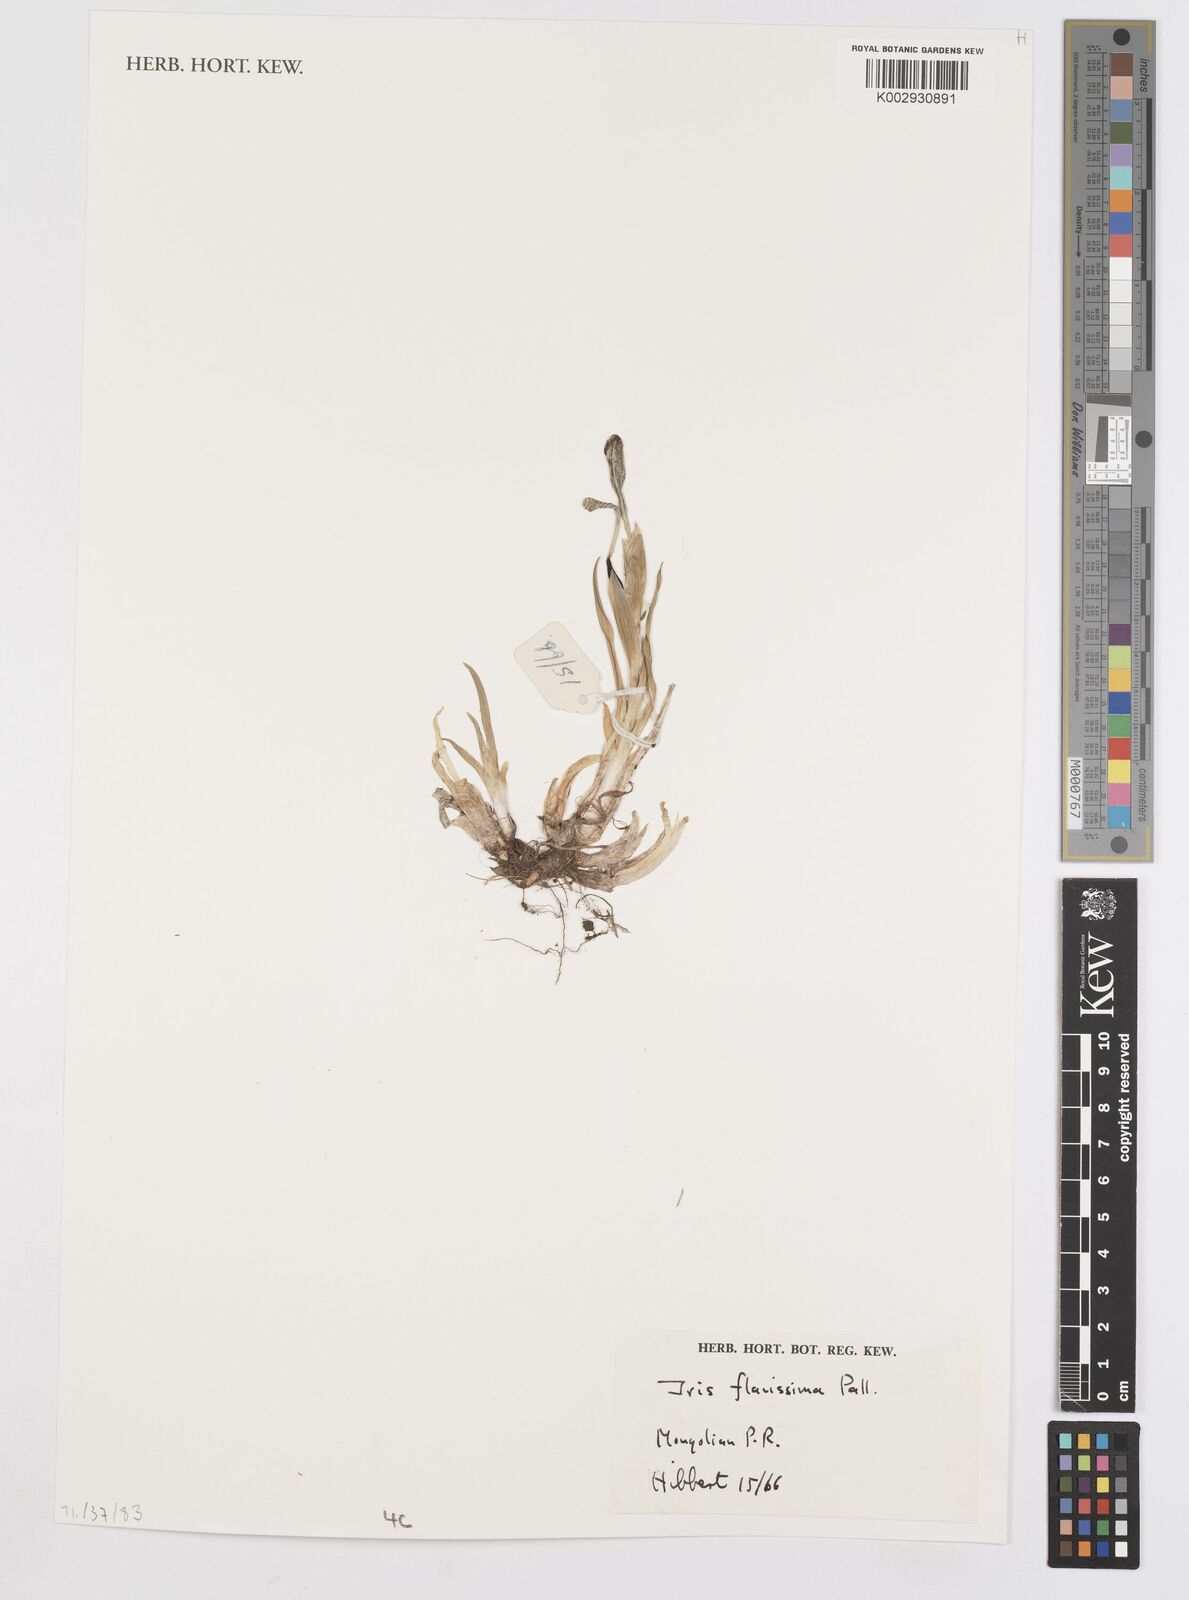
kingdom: Plantae
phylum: Tracheophyta
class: Liliopsida
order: Asparagales
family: Iridaceae
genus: Iris
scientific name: Iris humilis
